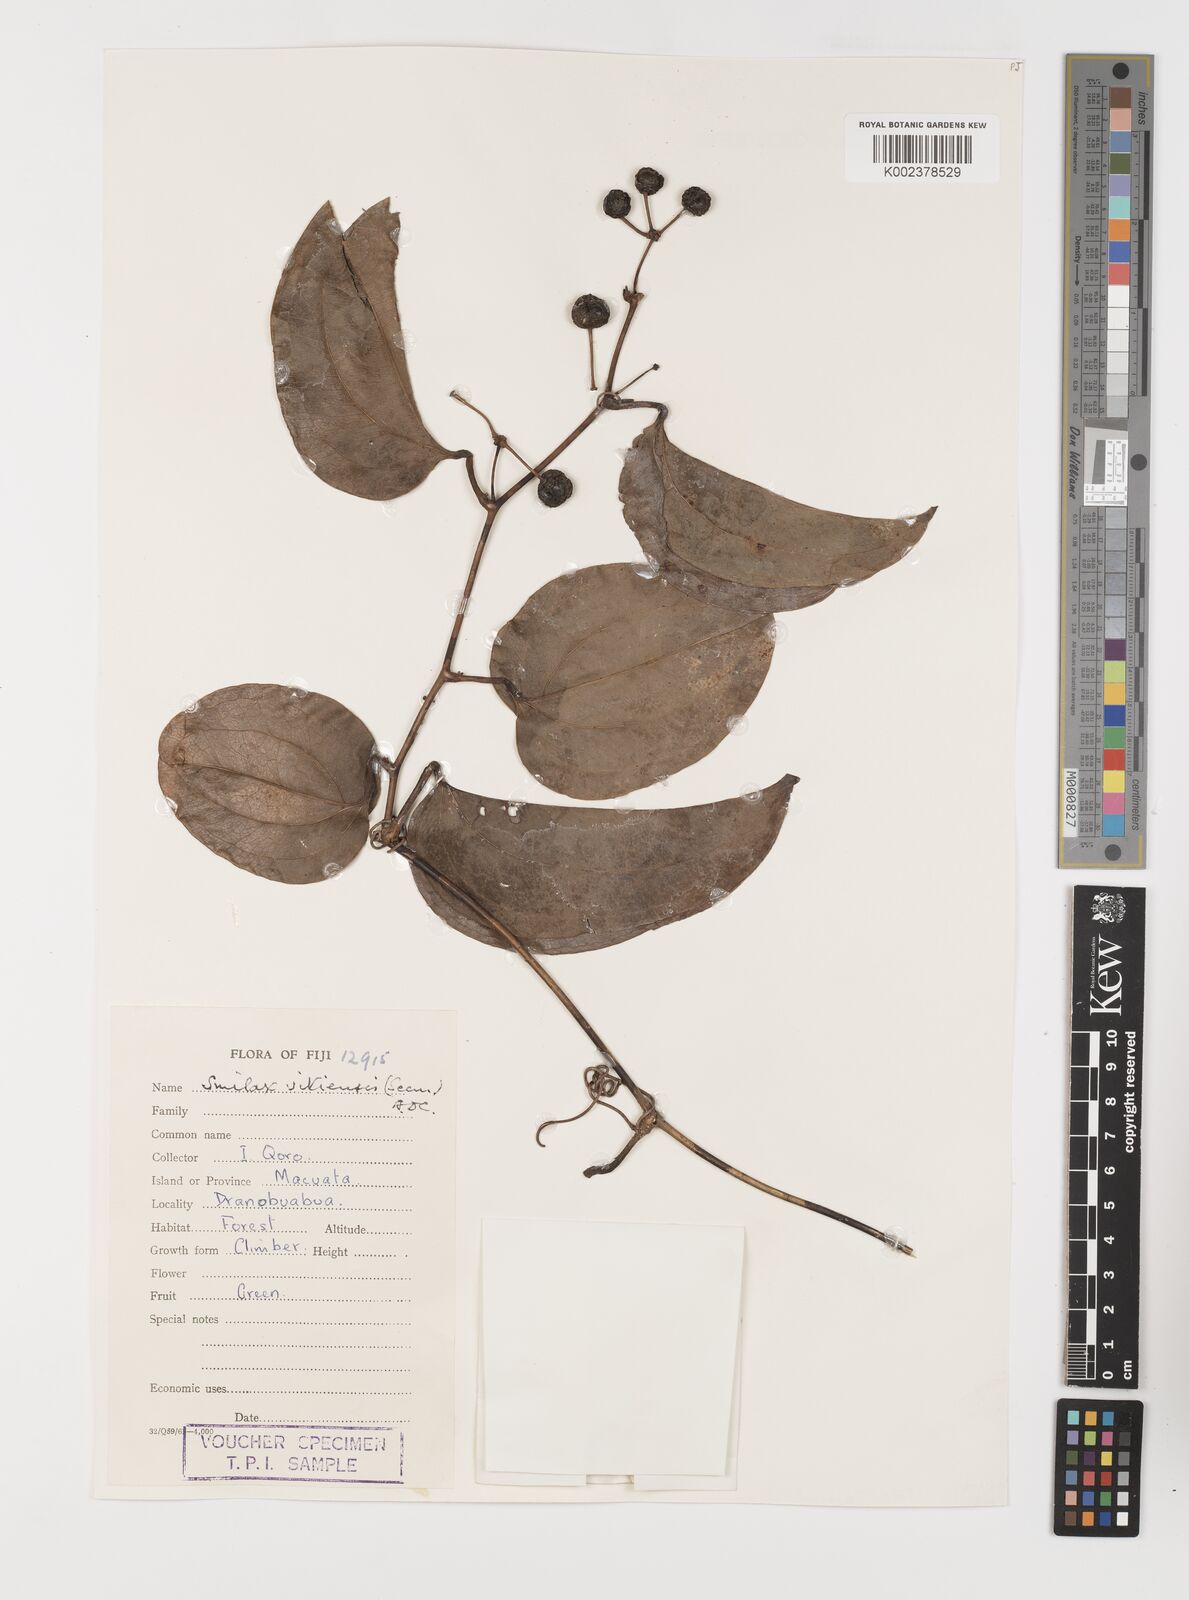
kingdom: Plantae
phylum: Tracheophyta
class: Liliopsida
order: Liliales
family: Smilacaceae
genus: Smilax
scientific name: Smilax vitiensis
